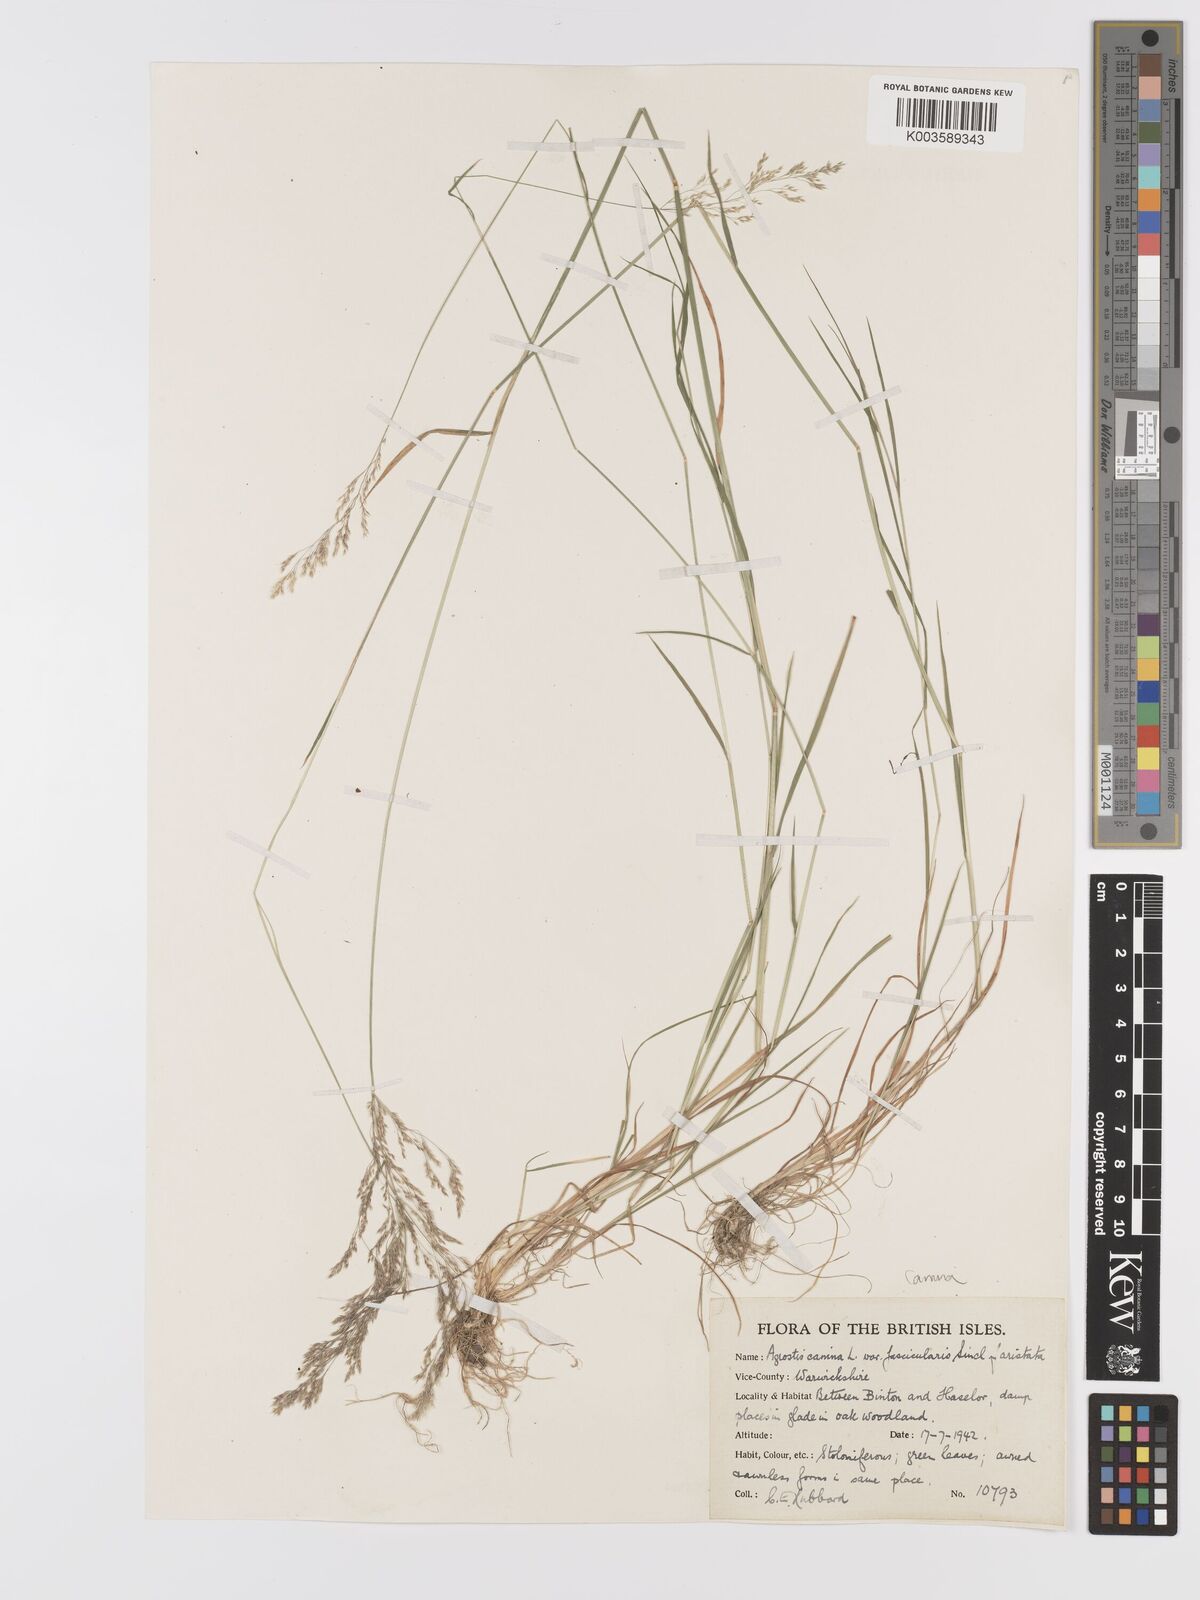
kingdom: Plantae
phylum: Tracheophyta
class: Liliopsida
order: Poales
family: Poaceae
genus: Agrostis
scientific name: Agrostis canina
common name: Velvet bent
